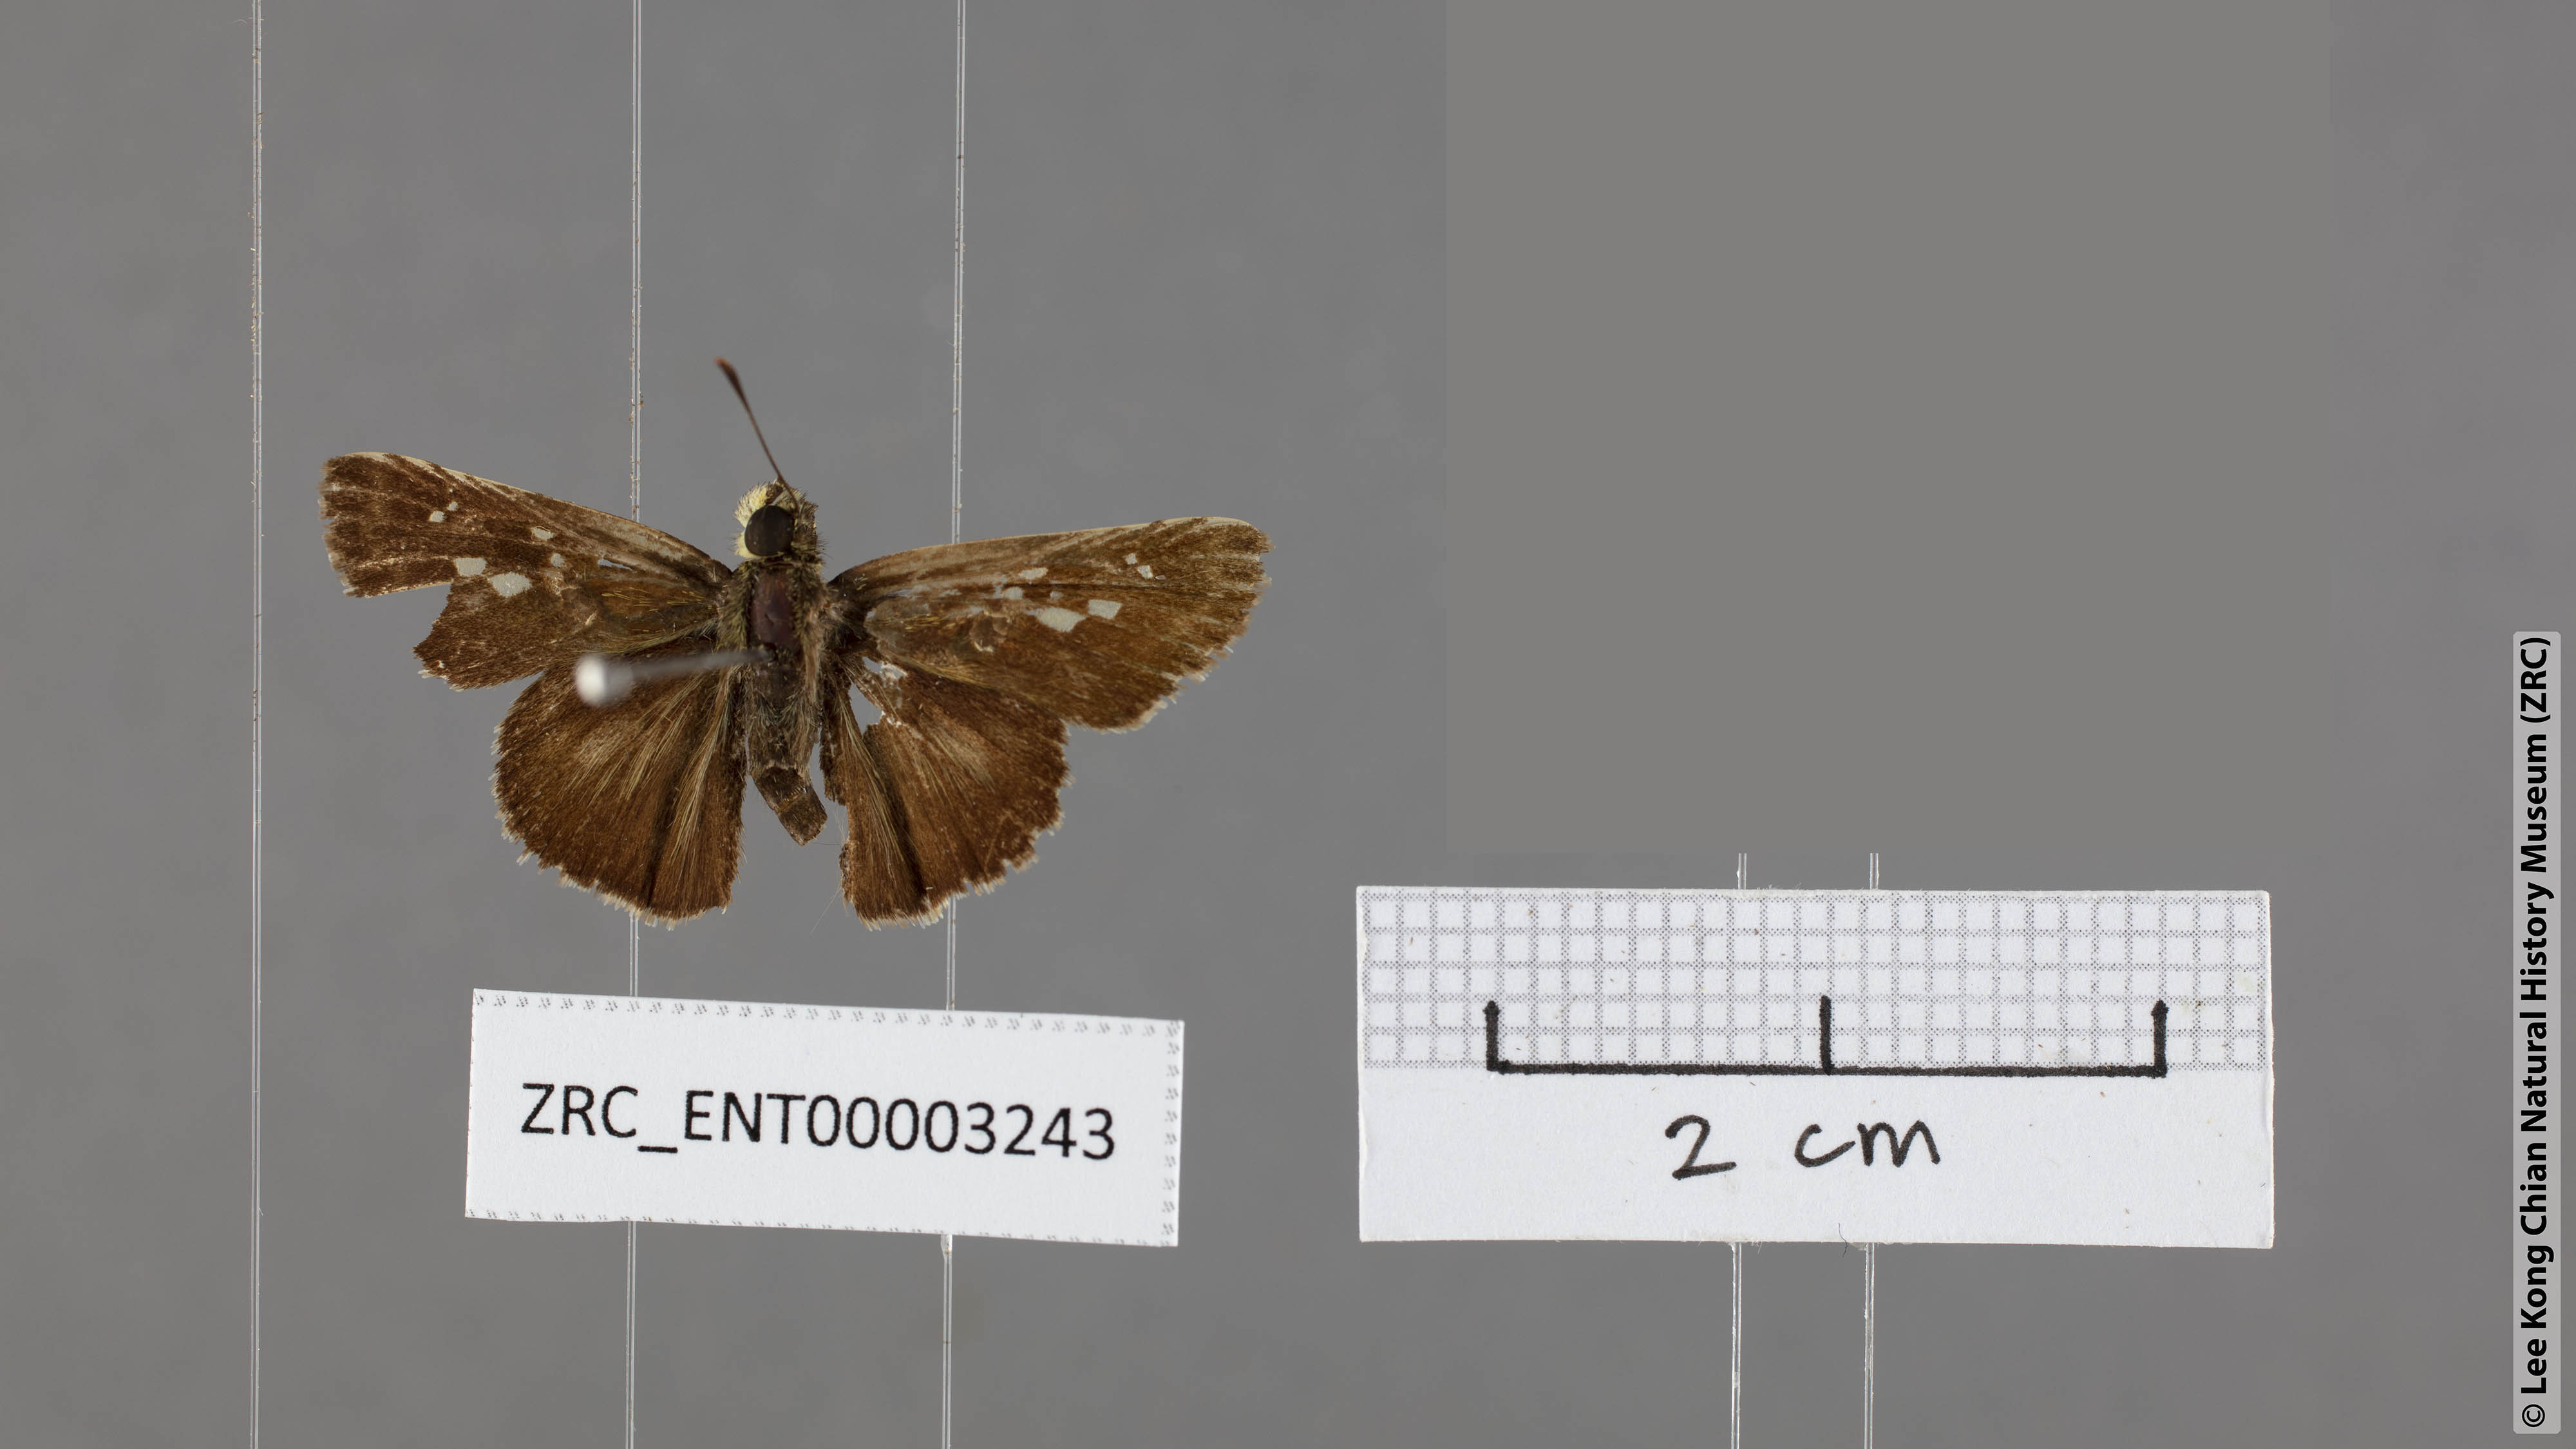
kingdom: Animalia
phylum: Arthropoda
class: Insecta
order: Lepidoptera
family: Hesperiidae
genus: Halpe
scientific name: Halpe porus
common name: Moore's ace
